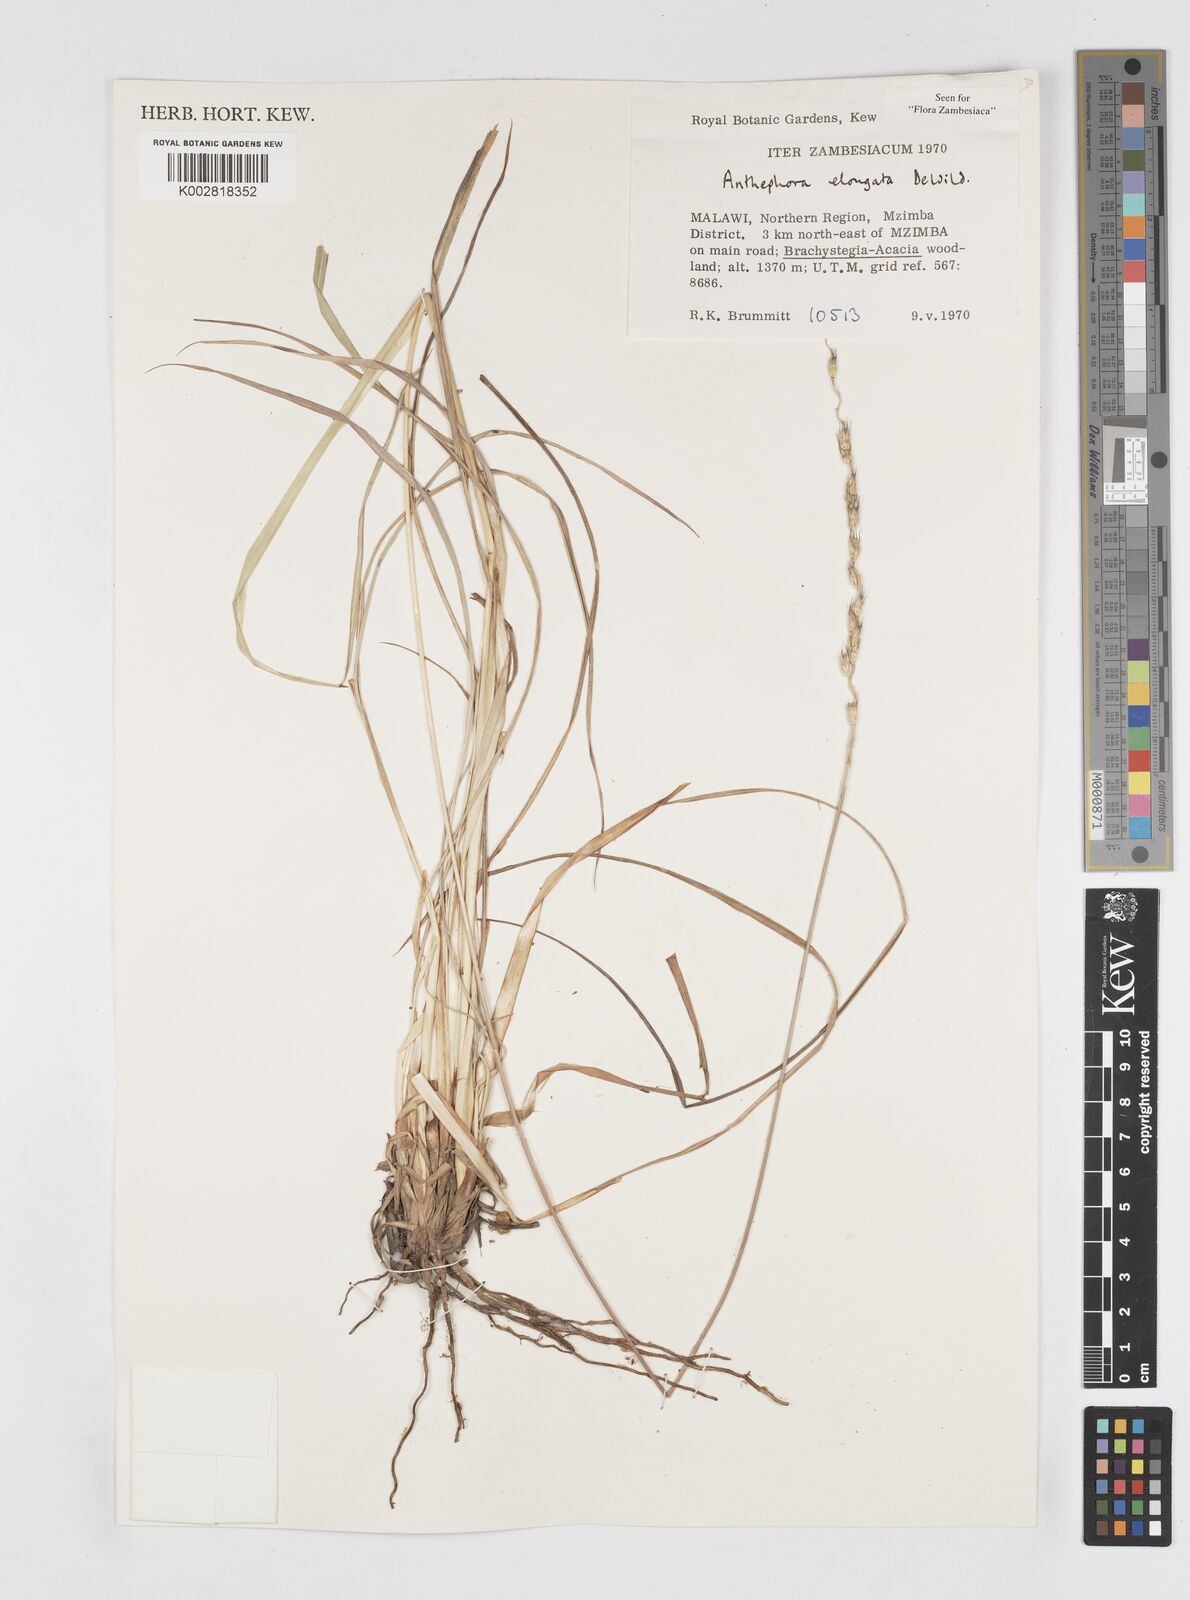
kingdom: Plantae
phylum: Tracheophyta
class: Liliopsida
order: Poales
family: Poaceae
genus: Anthephora
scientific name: Anthephora elongata
